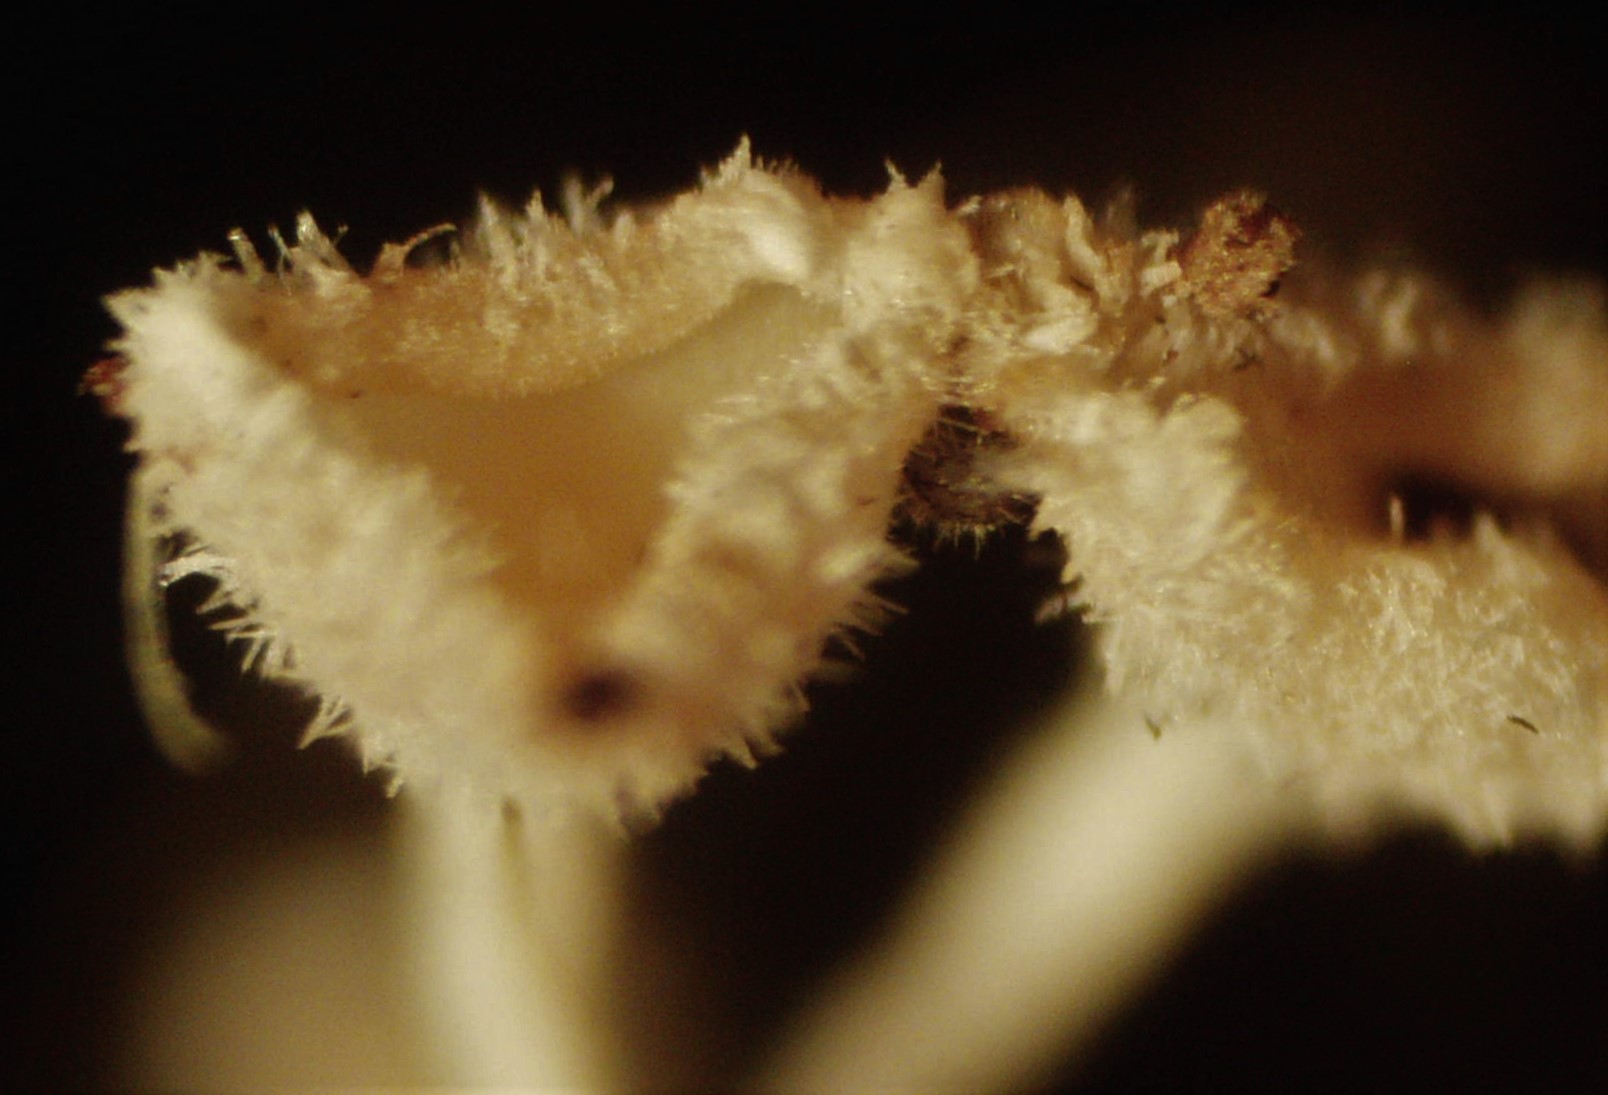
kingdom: Fungi
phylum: Ascomycota
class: Leotiomycetes
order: Helotiales
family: Lachnaceae
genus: Lachnum
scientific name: Lachnum virgineum
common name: jomfru-frynseskive
